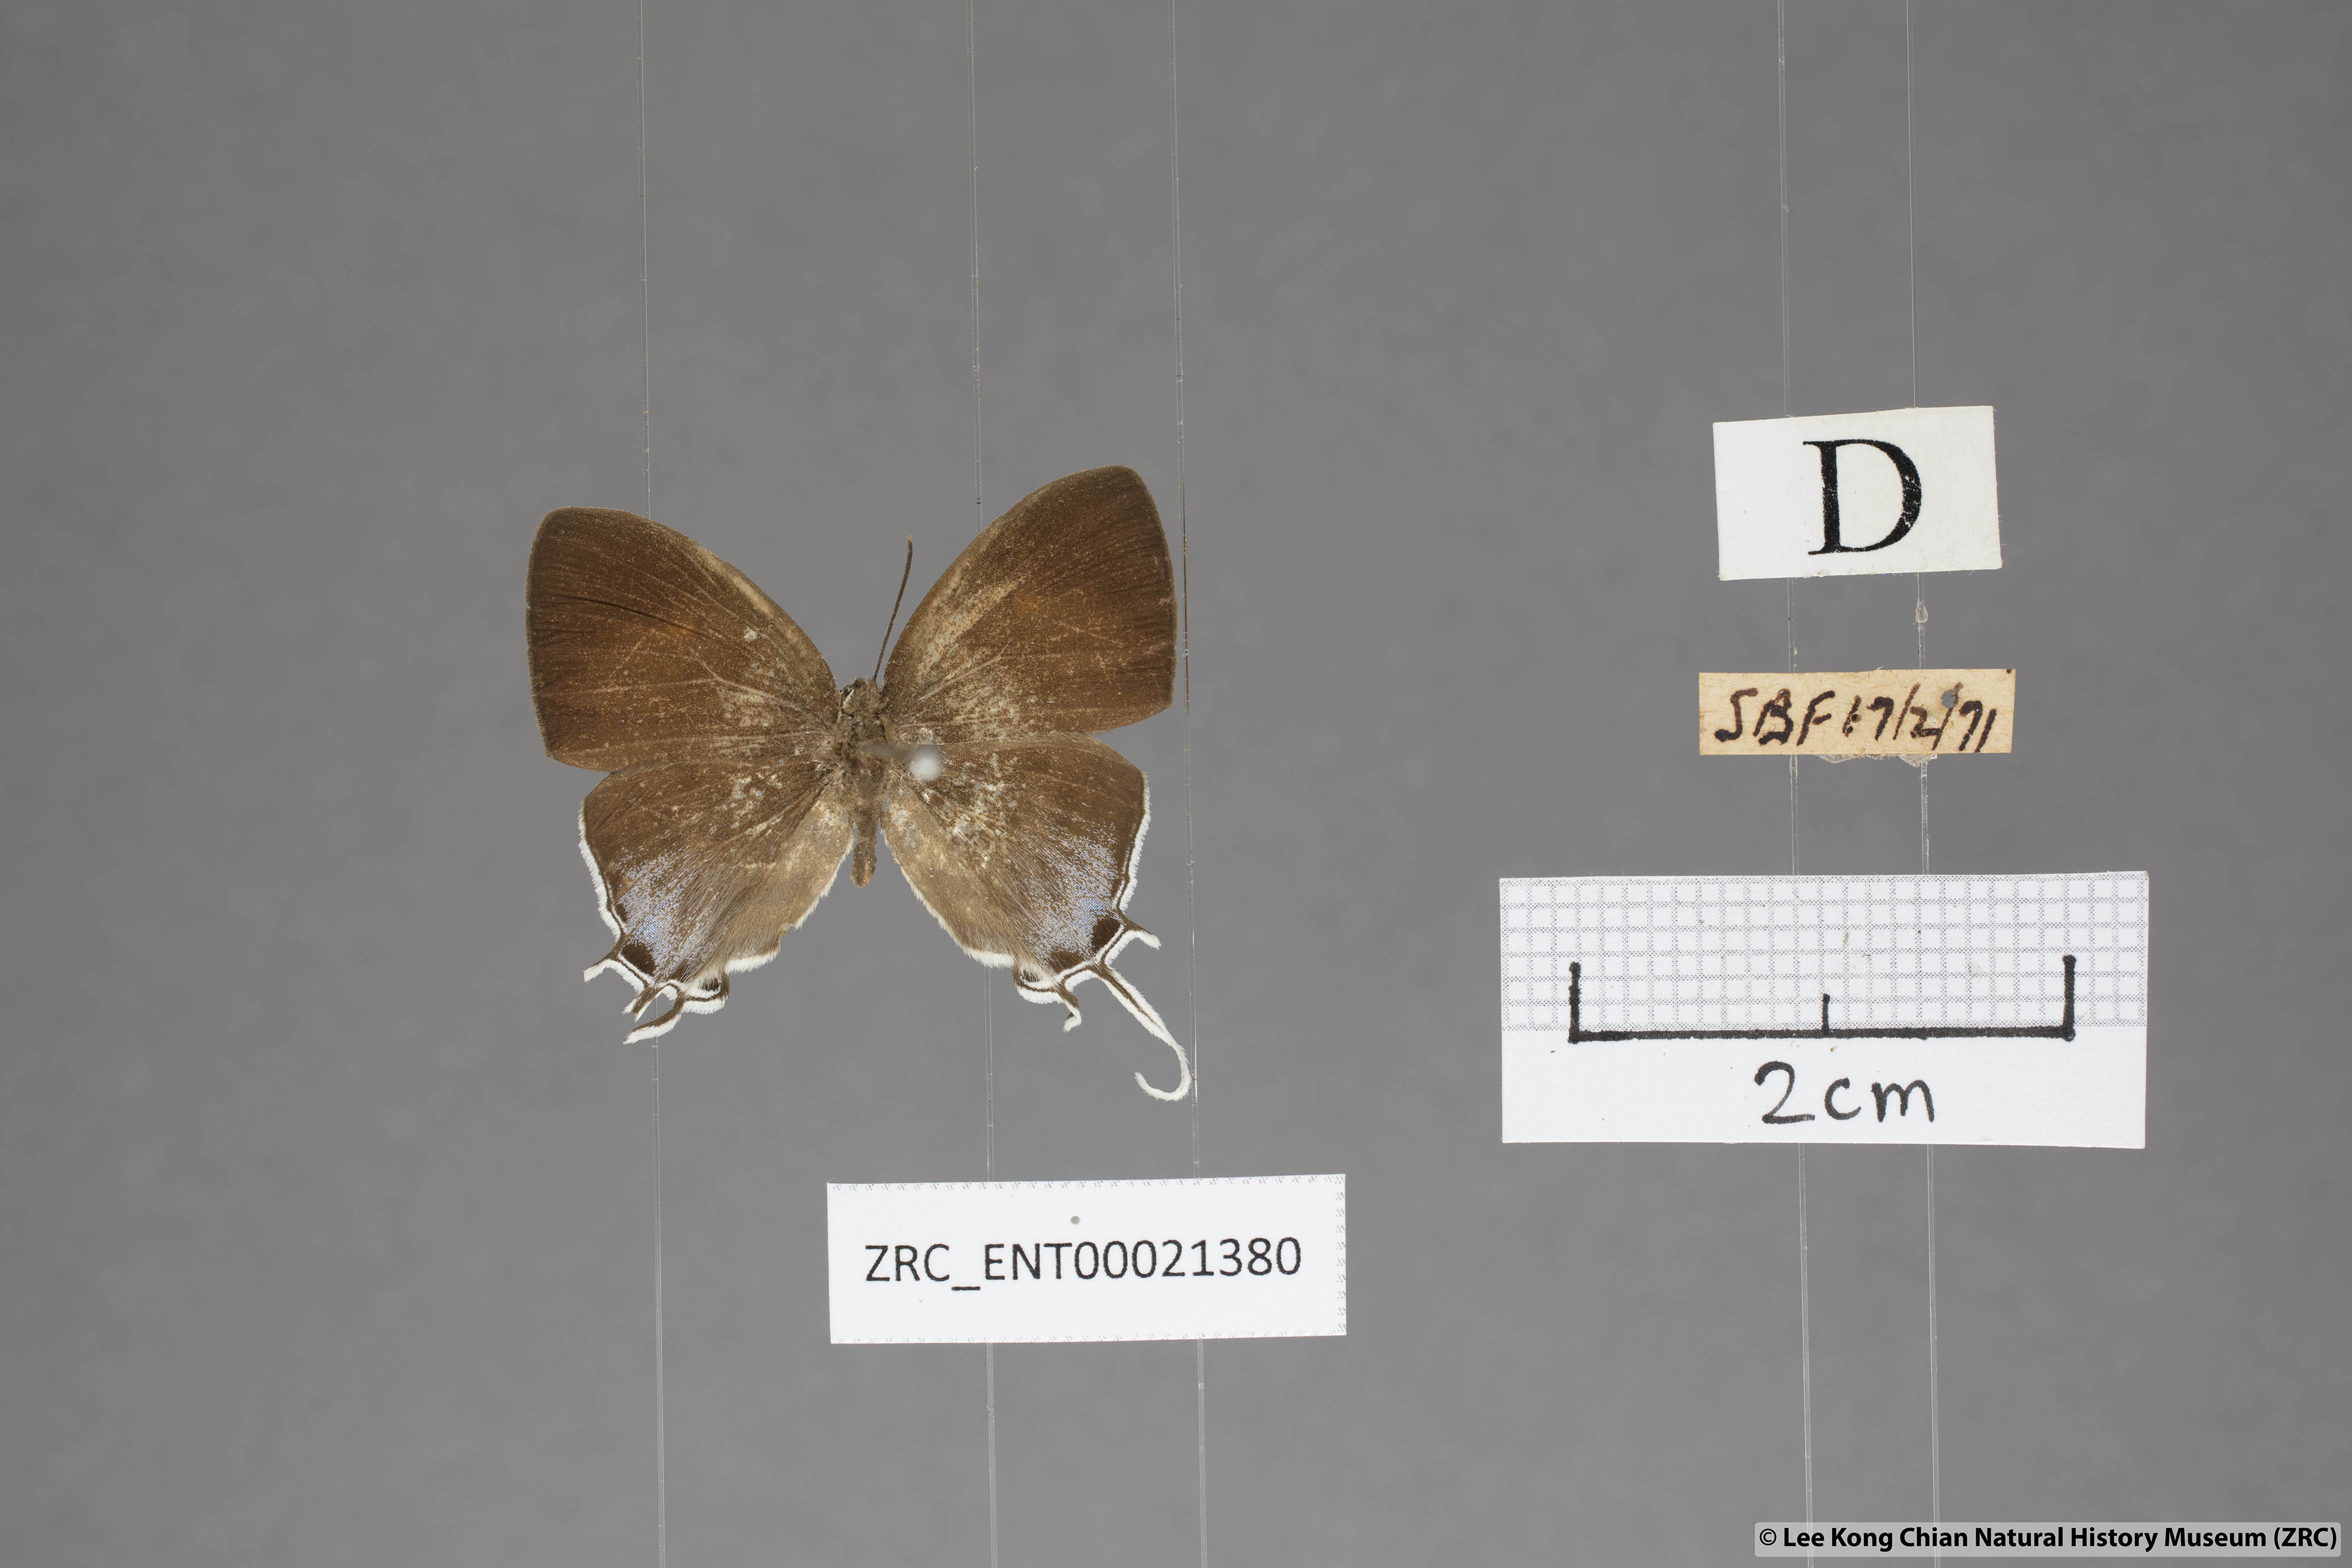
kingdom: Animalia
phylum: Arthropoda
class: Insecta
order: Lepidoptera
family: Lycaenidae
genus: Drupadia
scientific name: Drupadia ravindra
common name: Common posy
